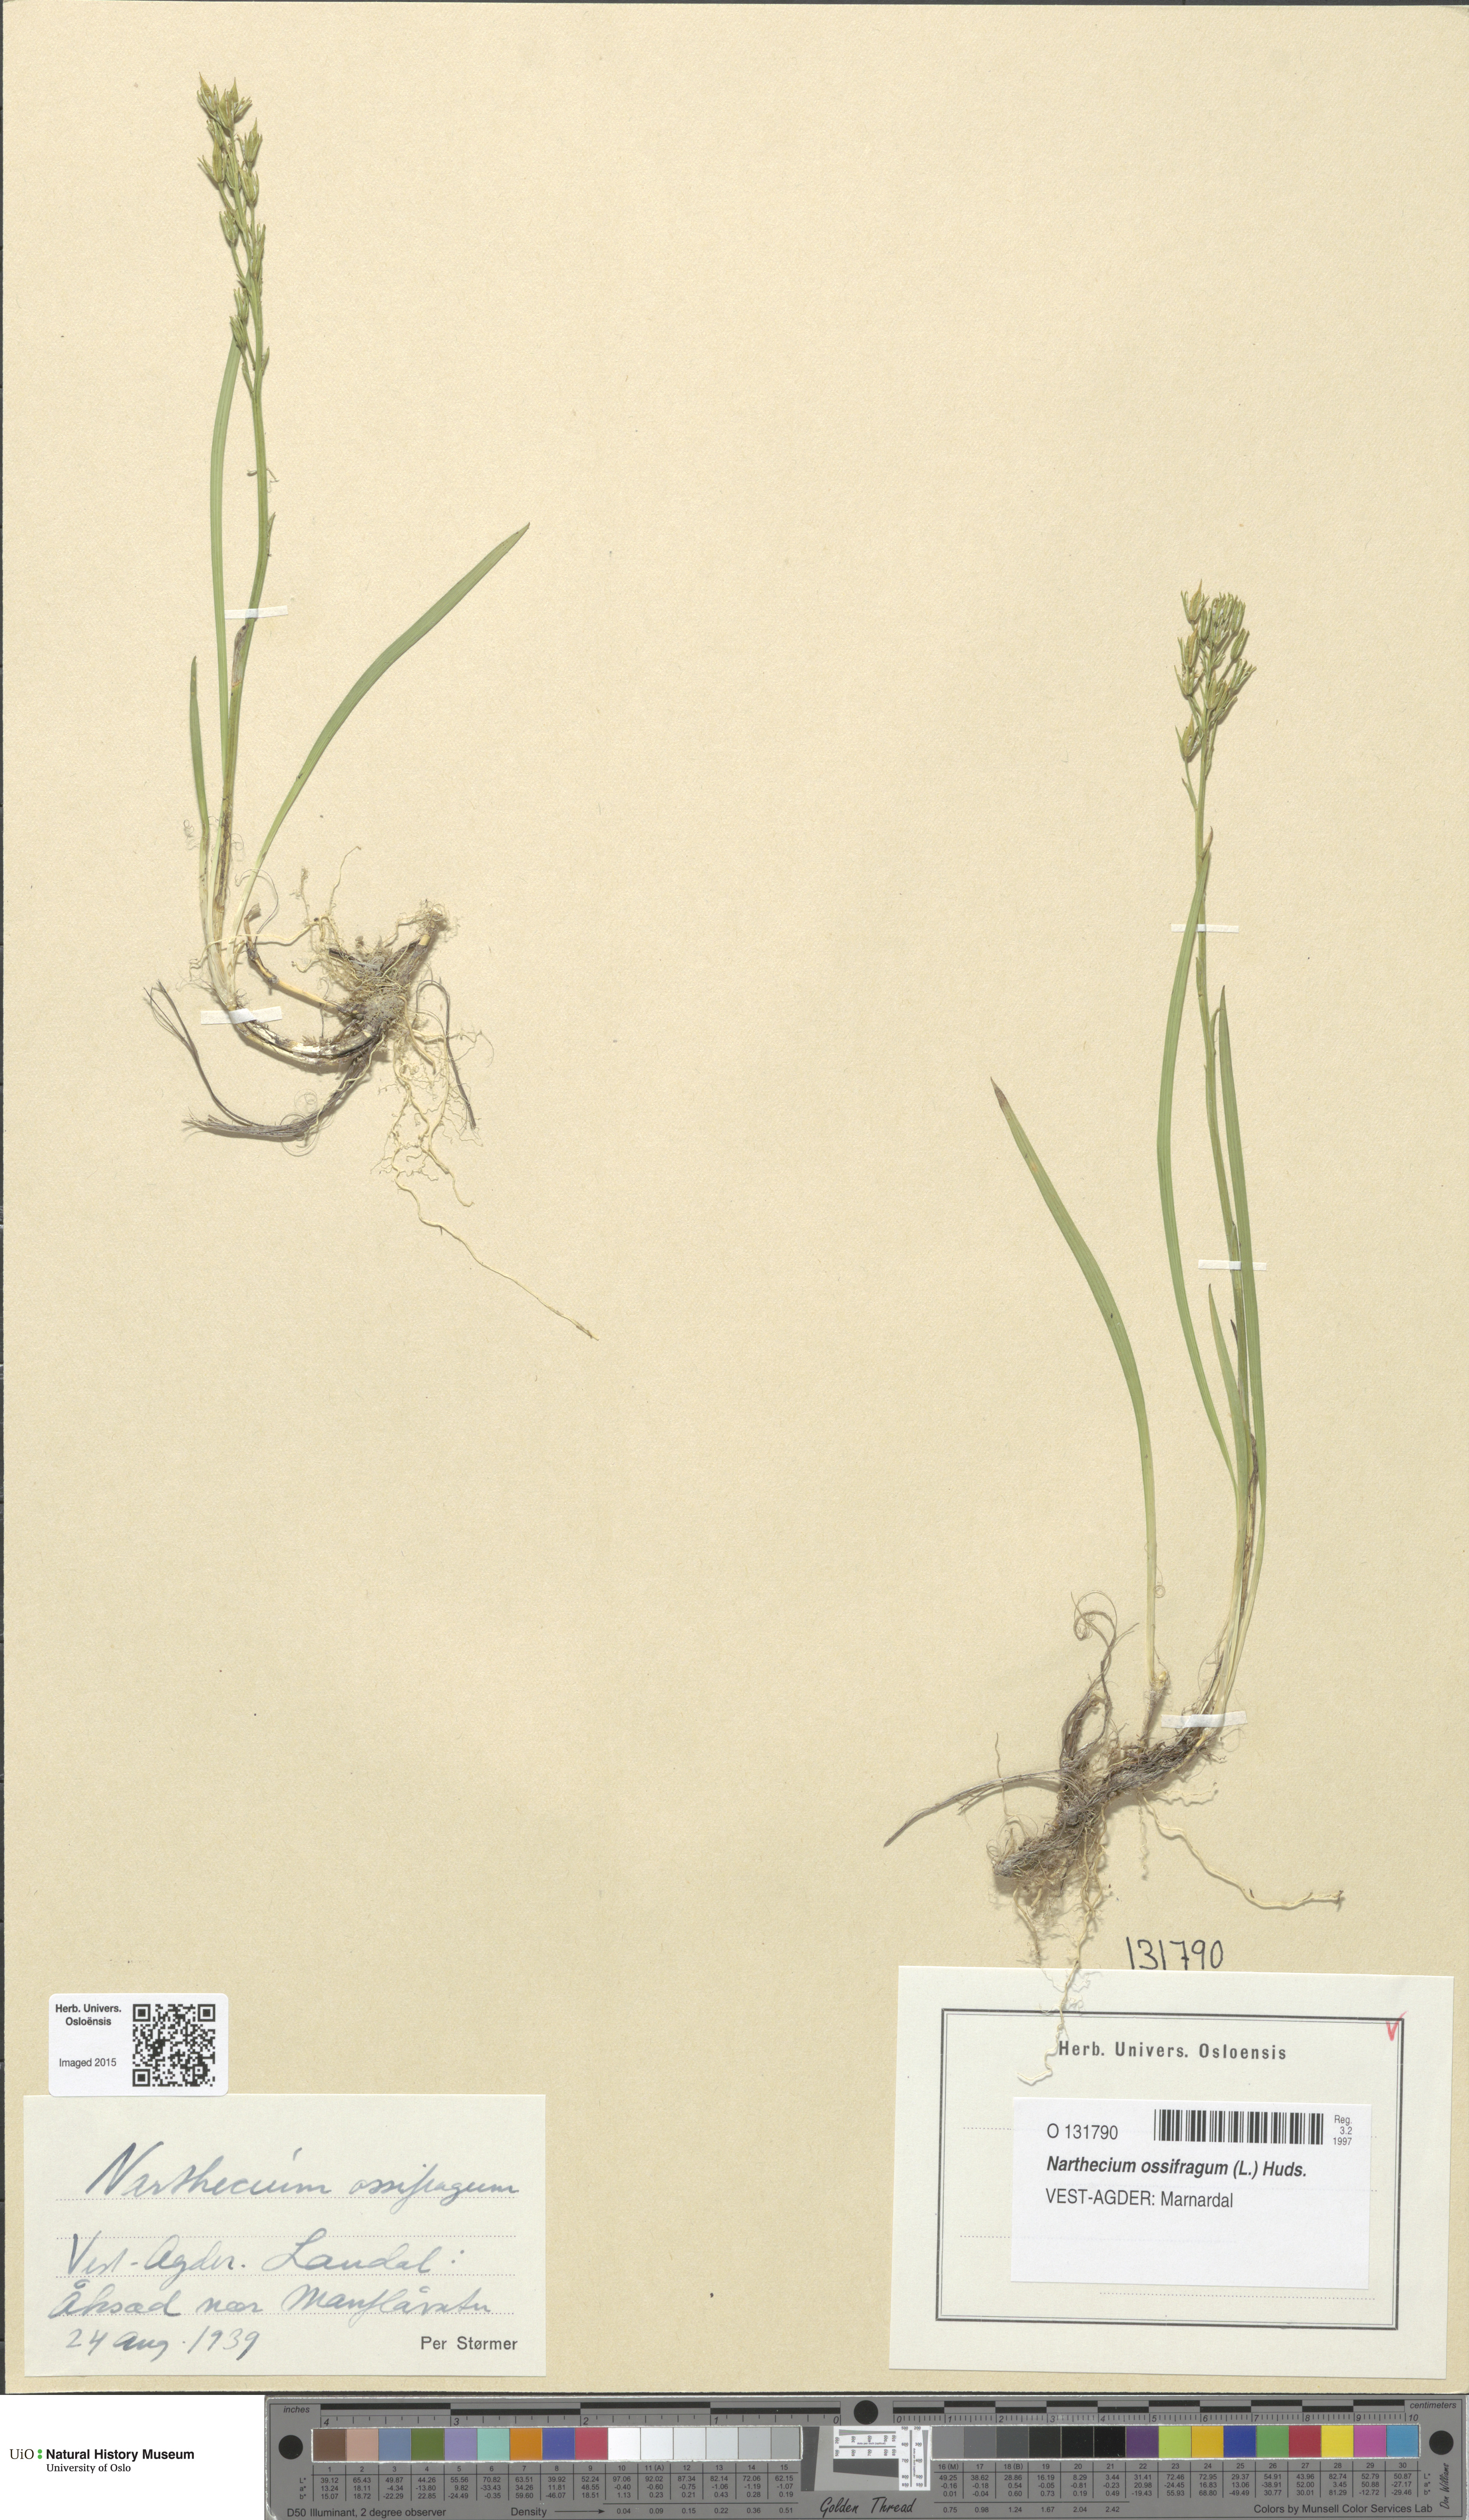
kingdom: Plantae
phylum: Tracheophyta
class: Liliopsida
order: Dioscoreales
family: Nartheciaceae
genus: Narthecium
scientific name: Narthecium ossifragum
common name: Bog asphodel
